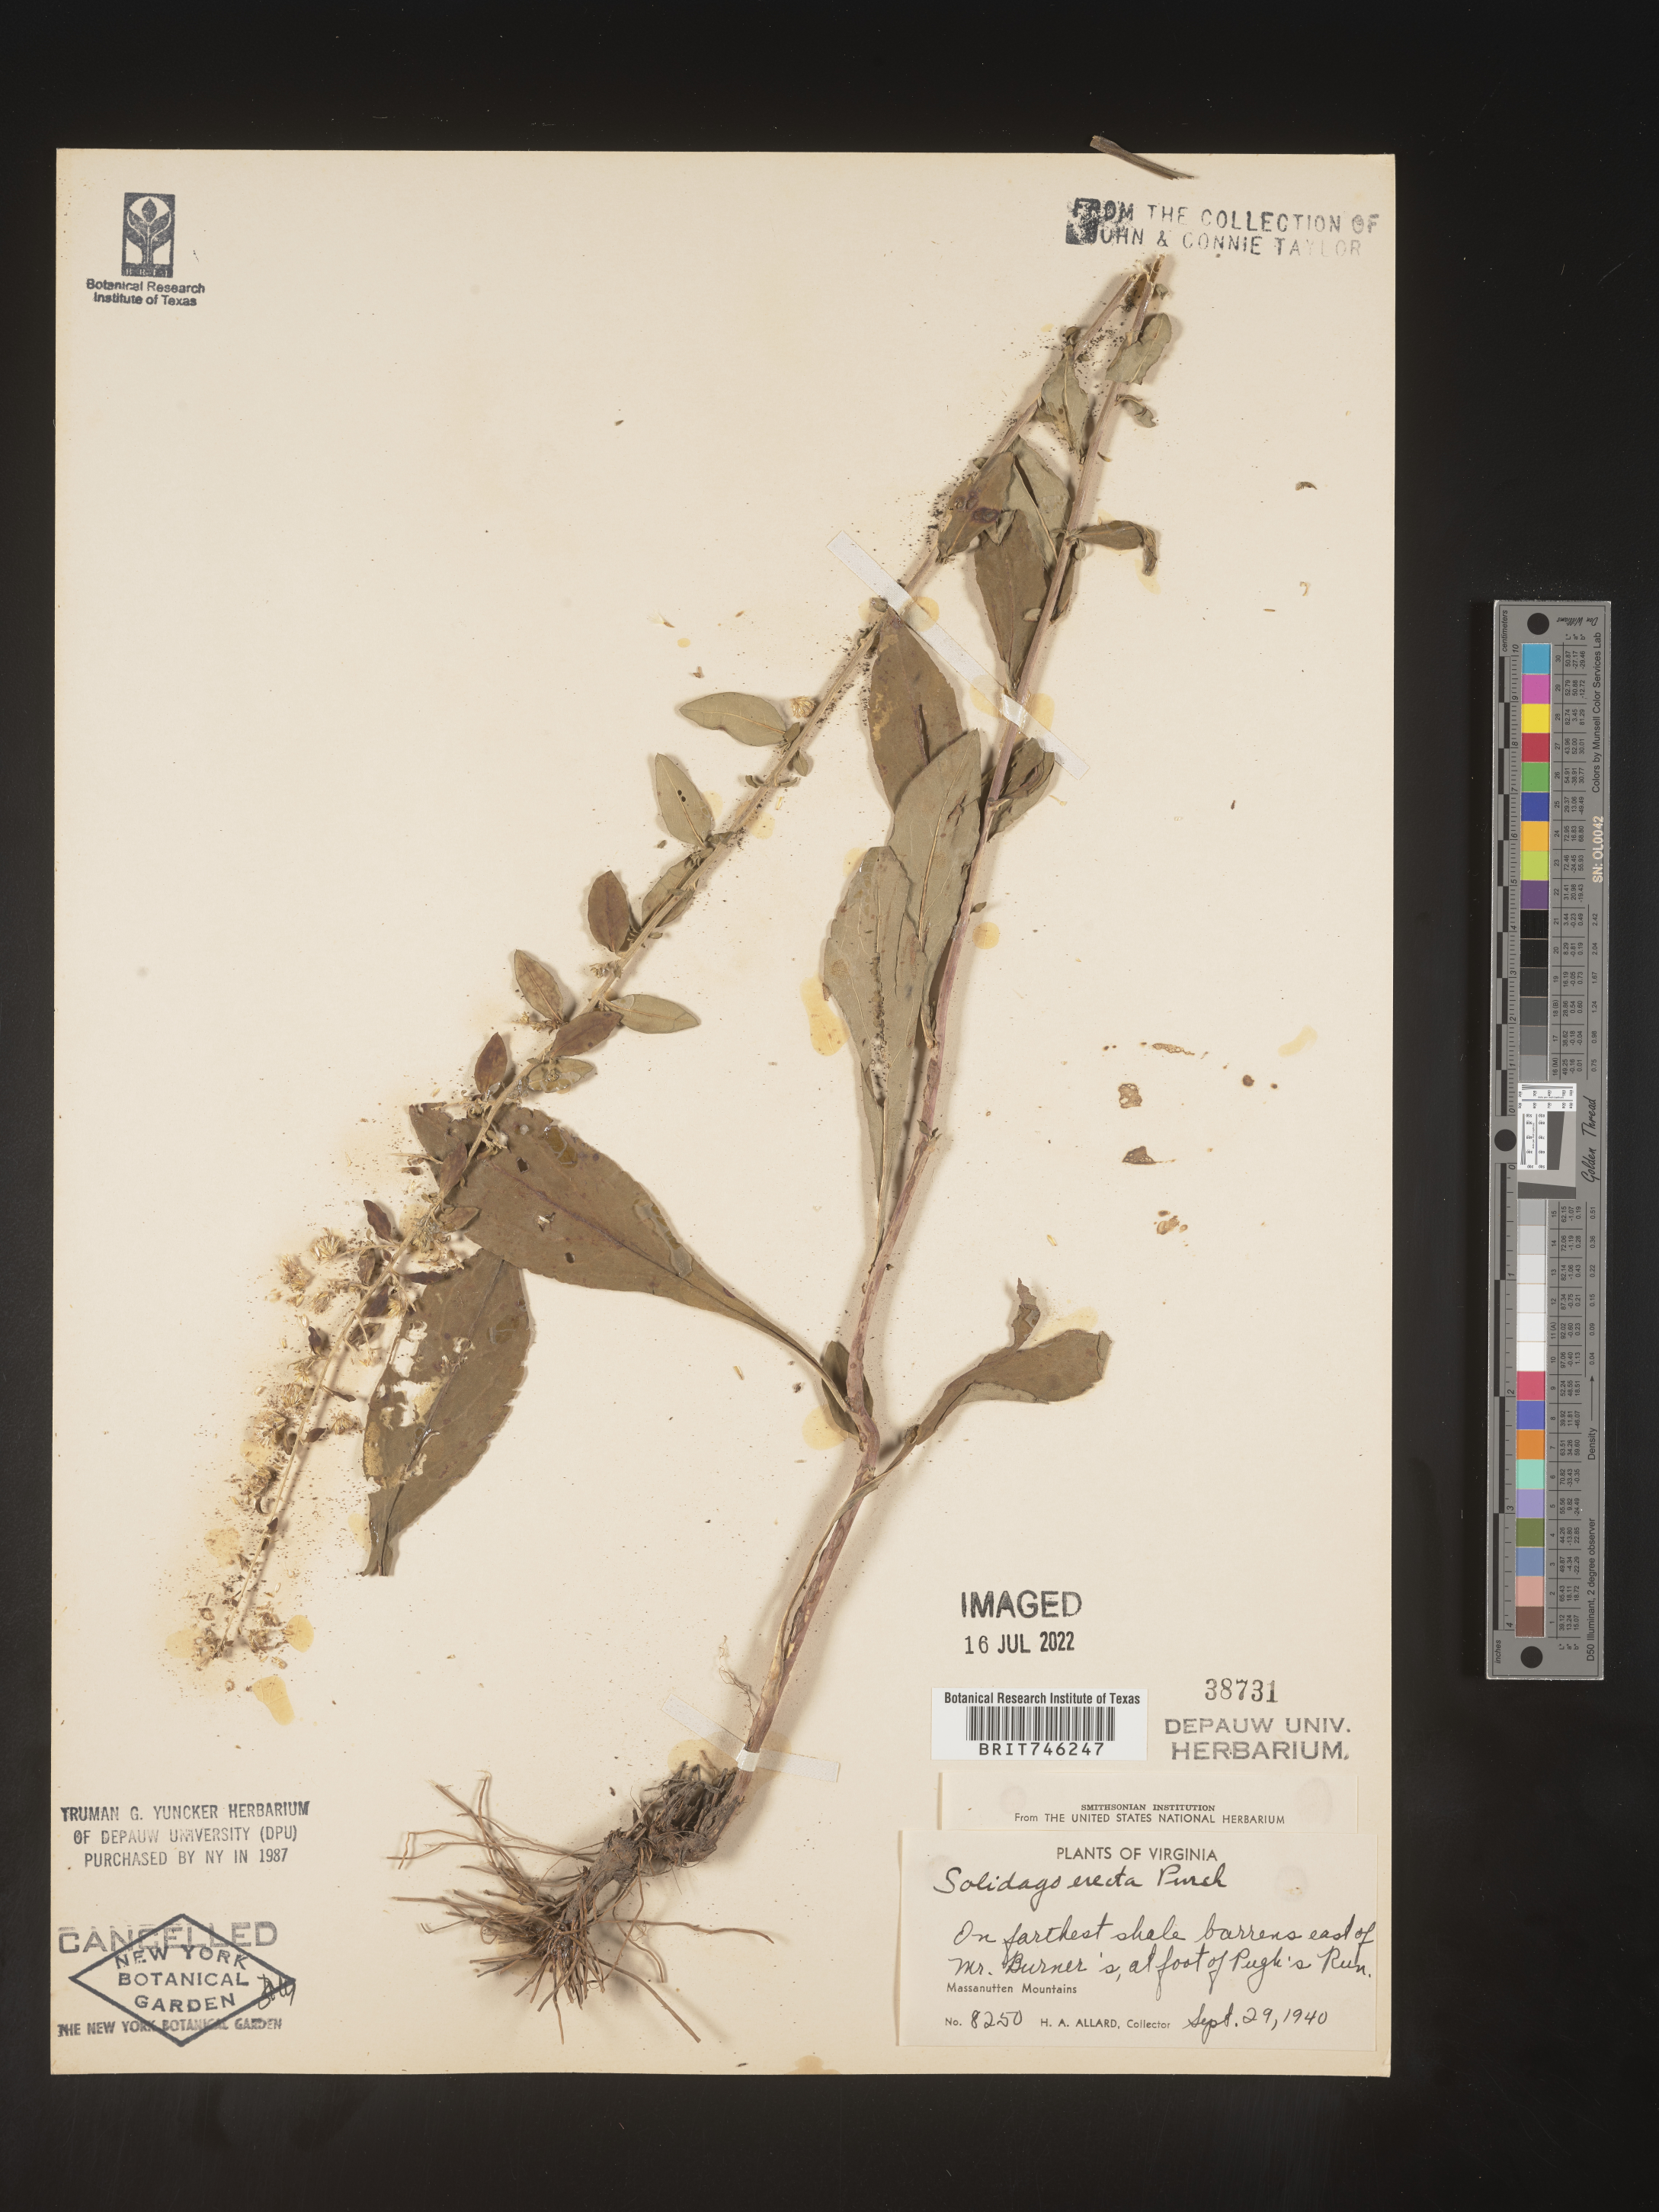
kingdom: Plantae
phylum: Tracheophyta
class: Magnoliopsida
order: Asterales
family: Asteraceae
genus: Solidago
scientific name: Solidago erecta
